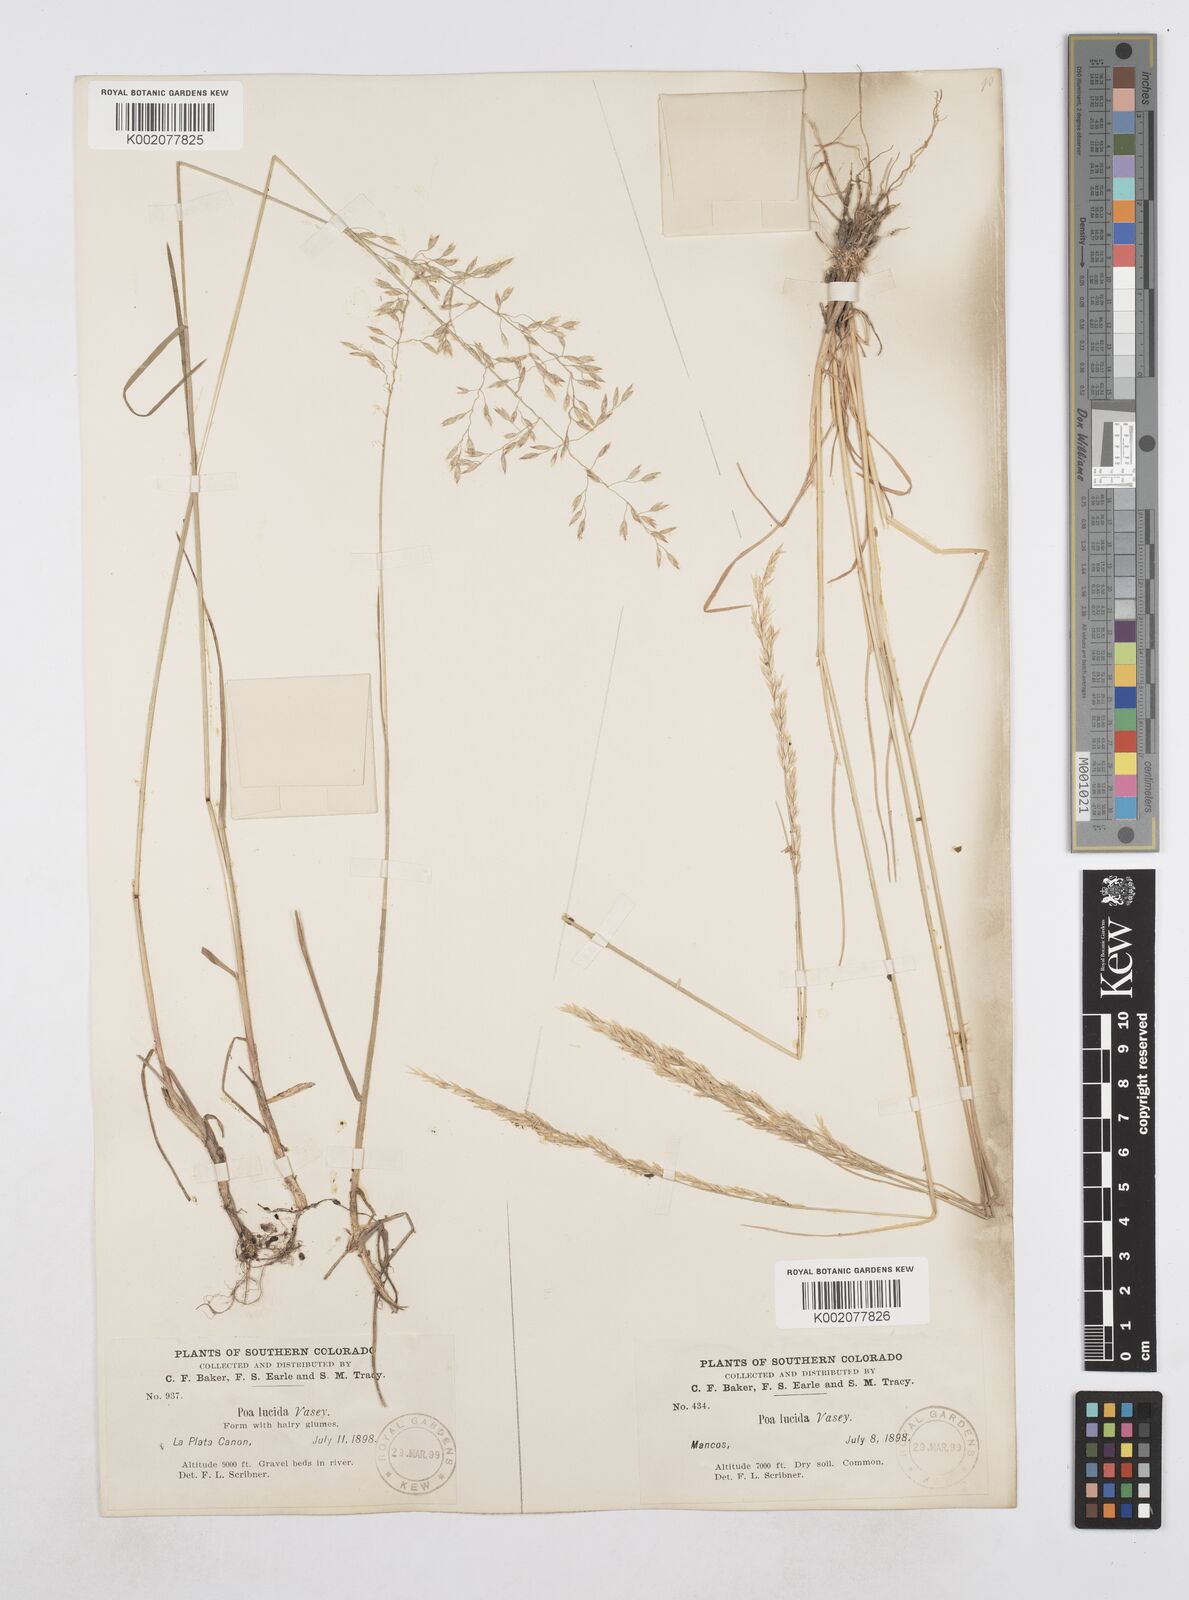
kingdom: Plantae
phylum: Tracheophyta
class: Liliopsida
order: Poales
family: Poaceae
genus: Poa
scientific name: Poa secunda
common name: Sandberg bluegrass
